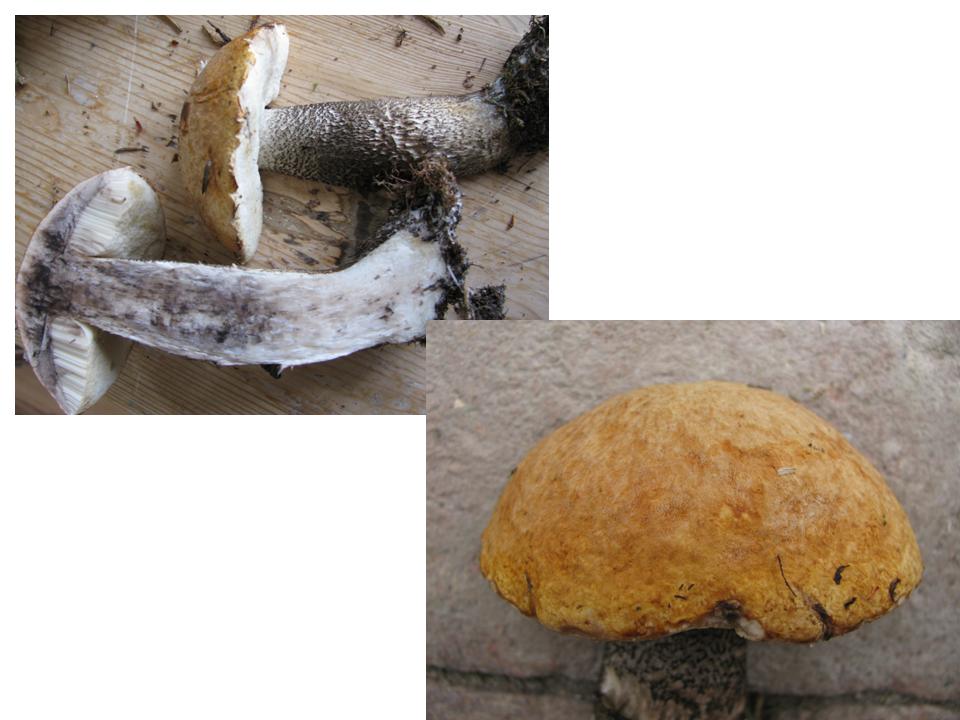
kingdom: Fungi
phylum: Basidiomycota
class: Agaricomycetes
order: Boletales
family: Boletaceae
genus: Leccinum
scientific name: Leccinum versipelle
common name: orange skælrørhat
